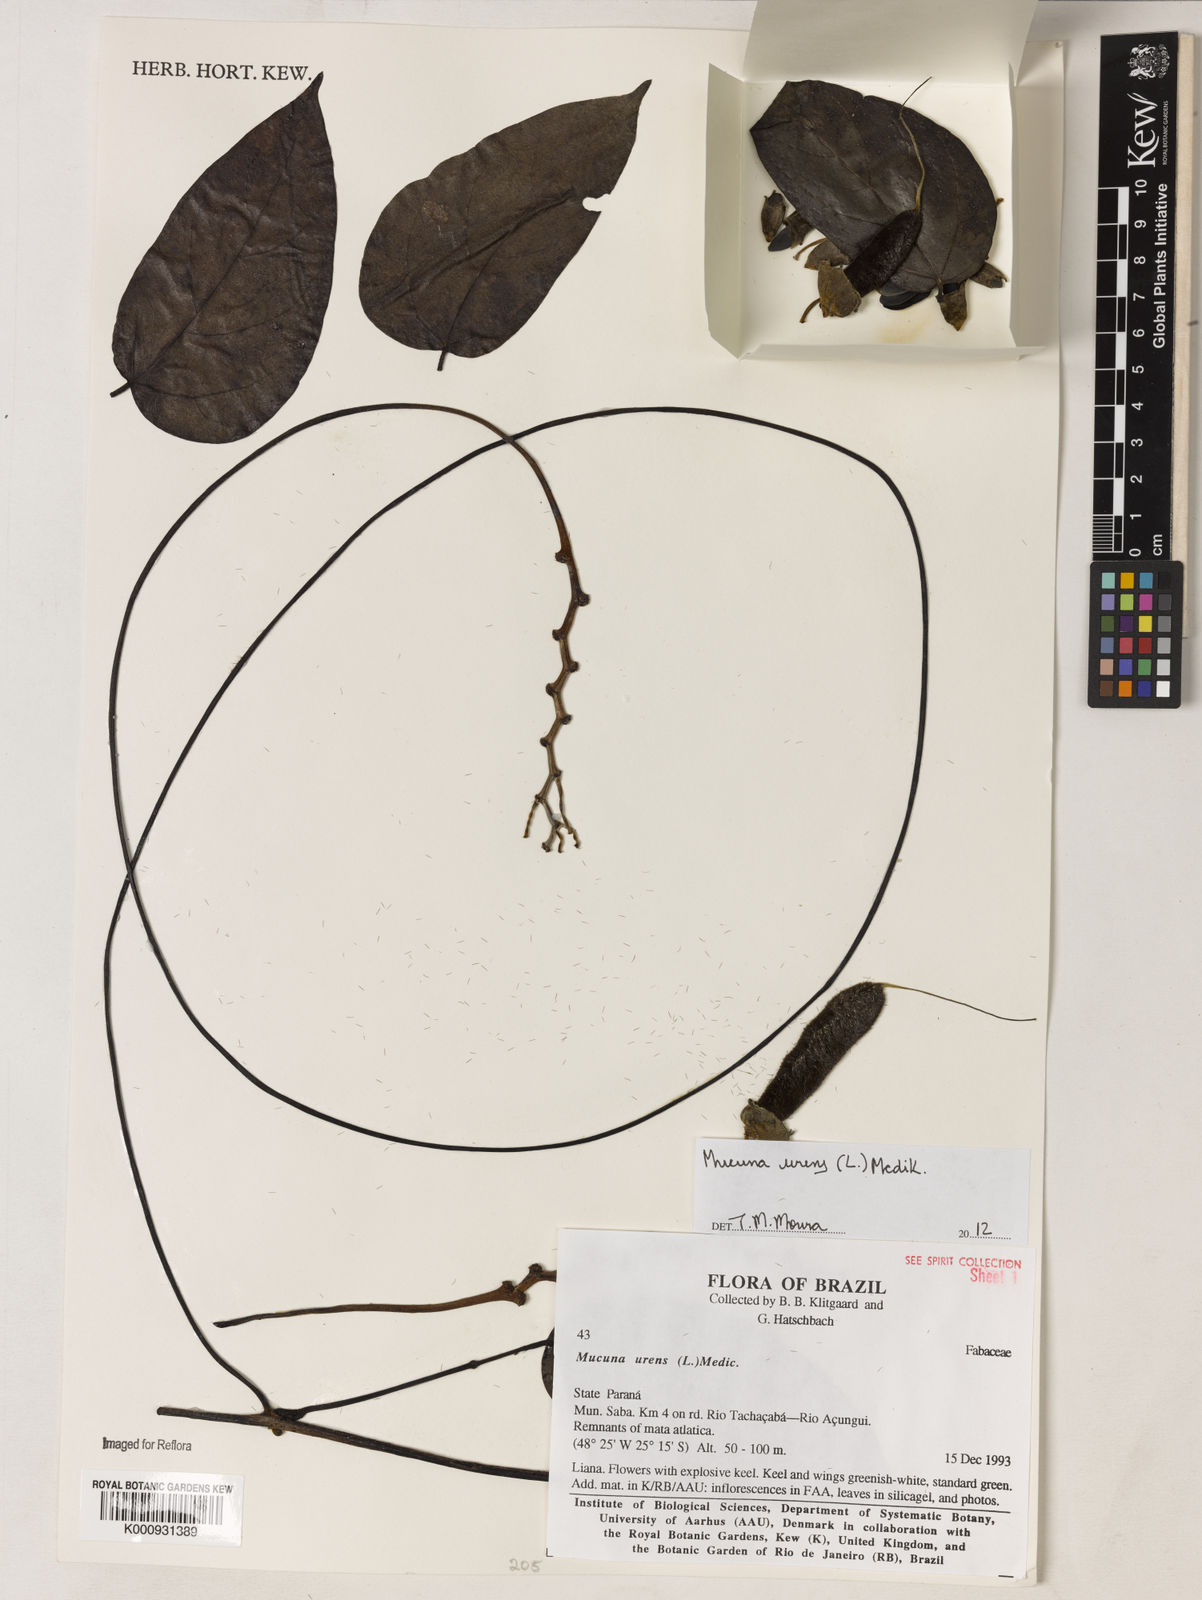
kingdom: Plantae
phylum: Tracheophyta
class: Magnoliopsida
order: Fabales
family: Fabaceae
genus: Mucuna
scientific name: Mucuna urens
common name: Red hamburger bean
